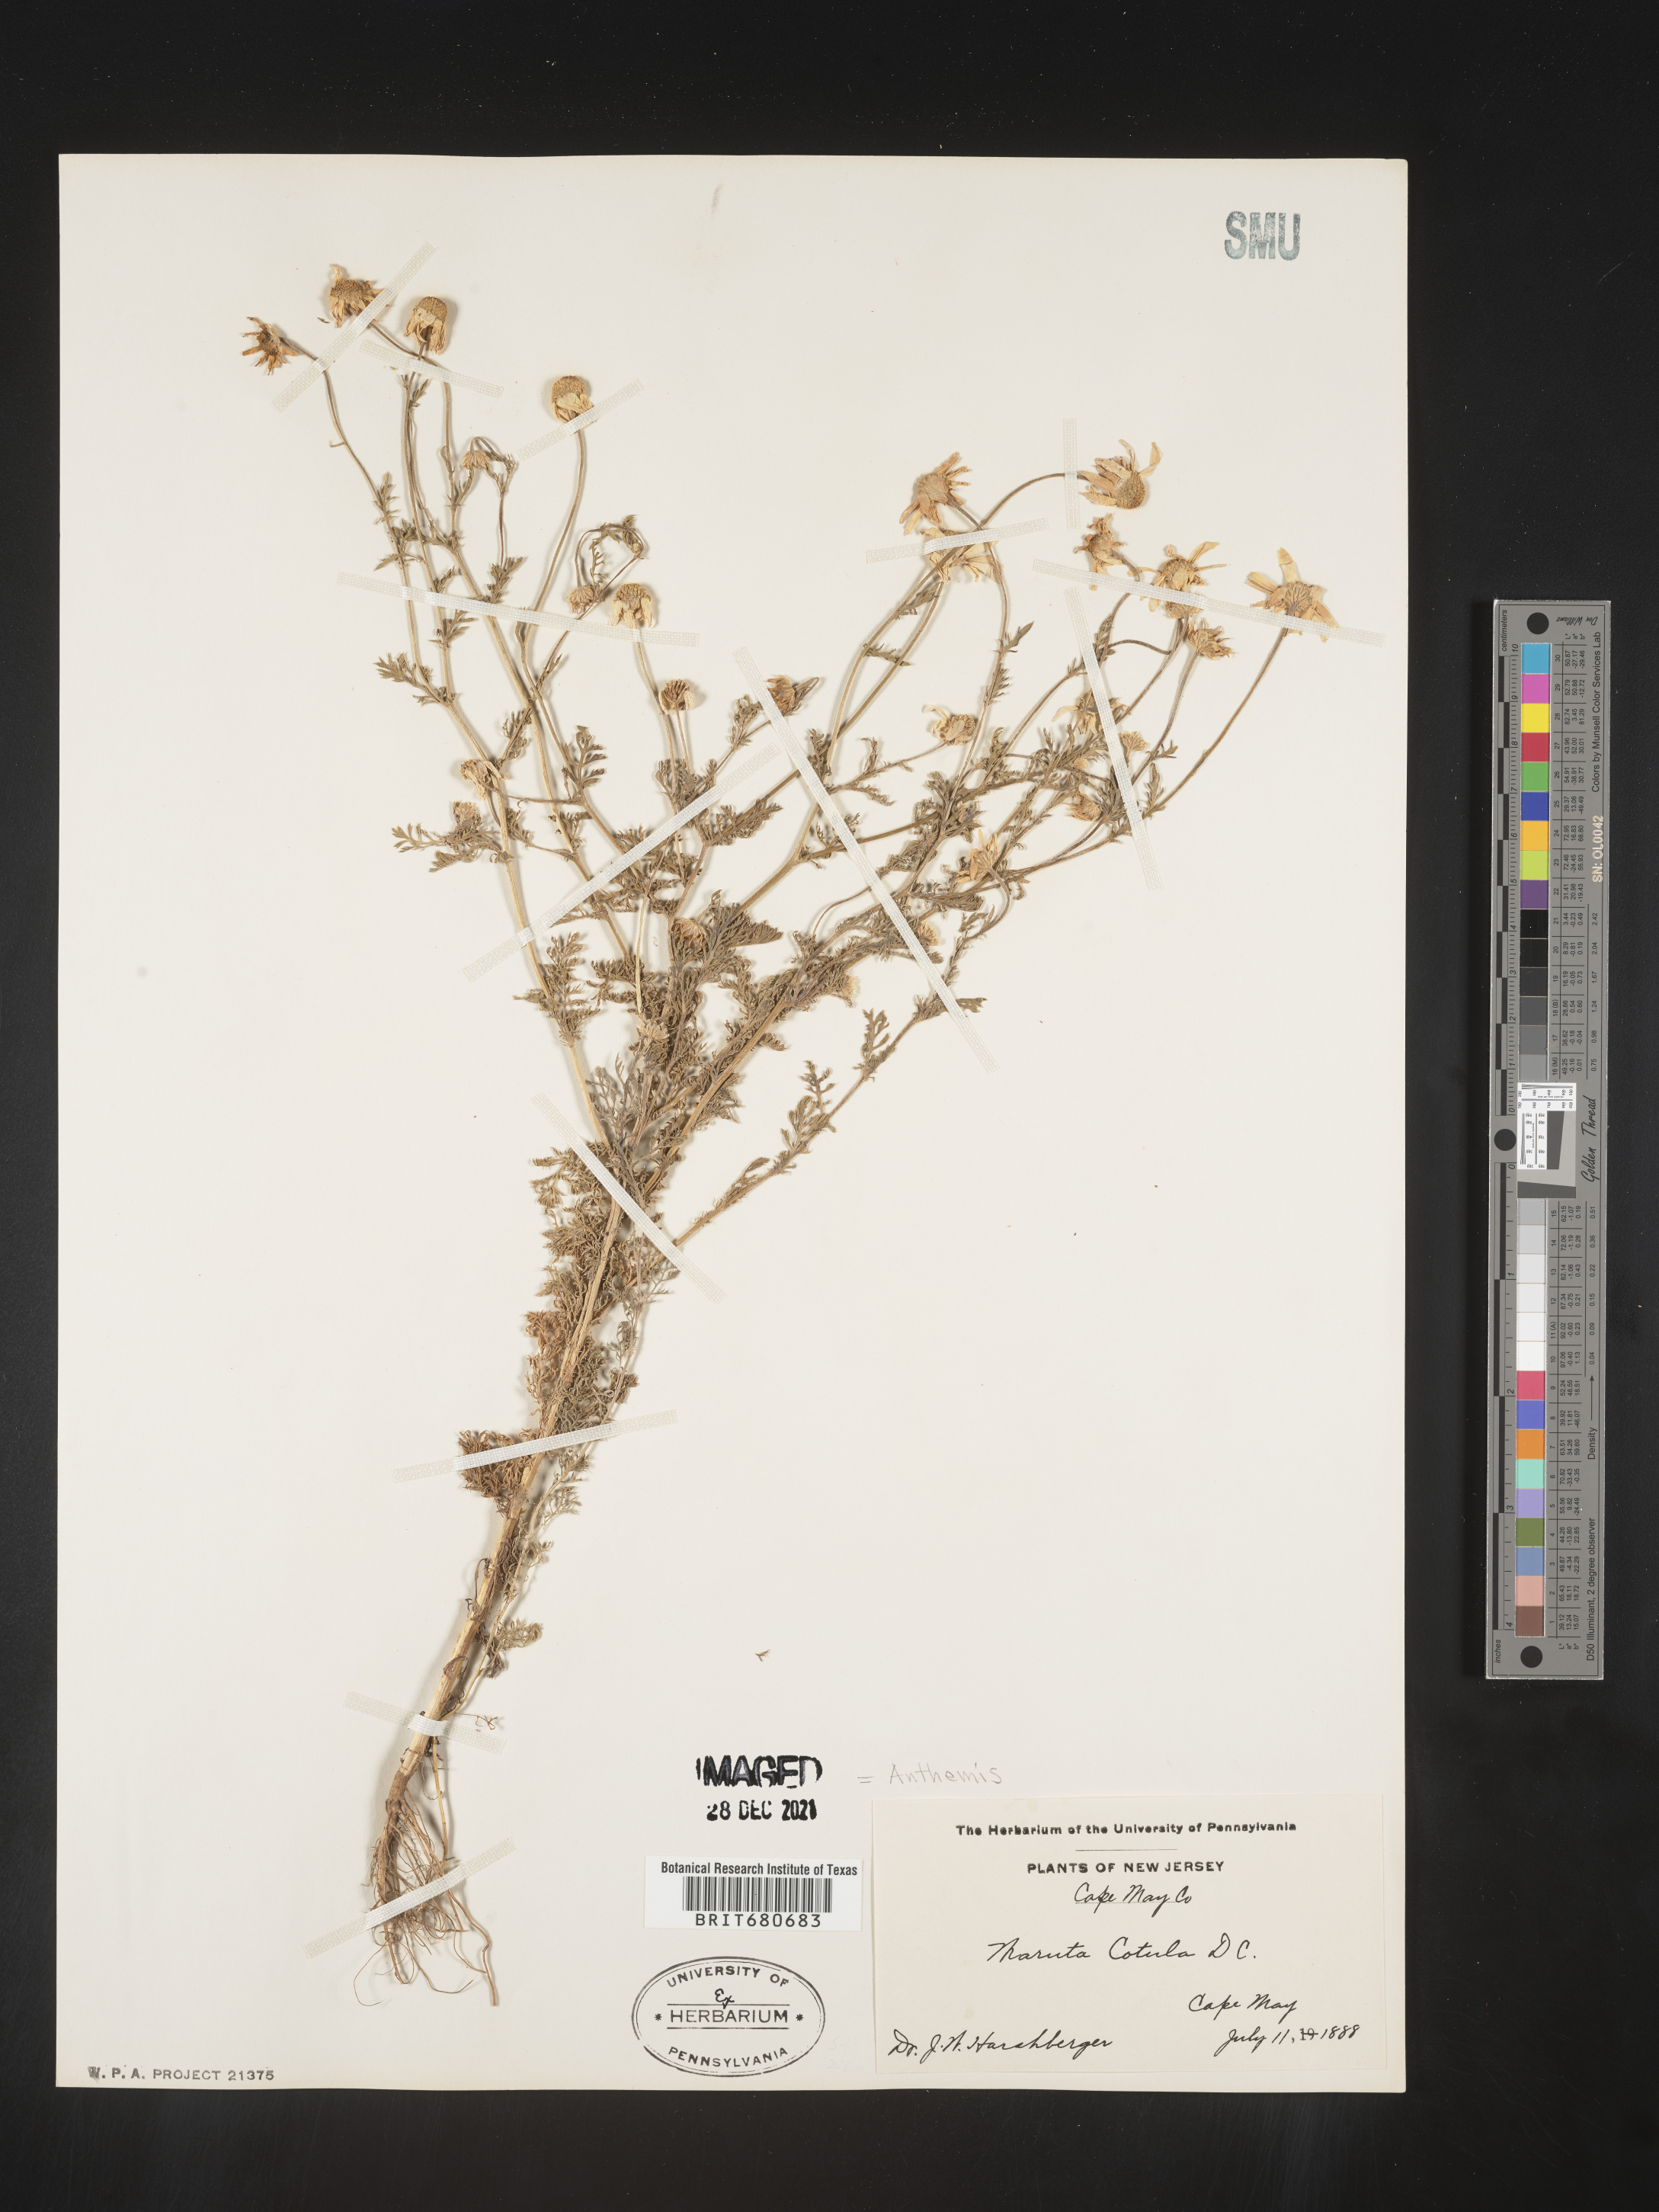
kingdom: Plantae
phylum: Tracheophyta
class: Magnoliopsida
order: Asterales
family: Asteraceae
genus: Anthemis
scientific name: Anthemis cotula
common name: Stinking chamomile
